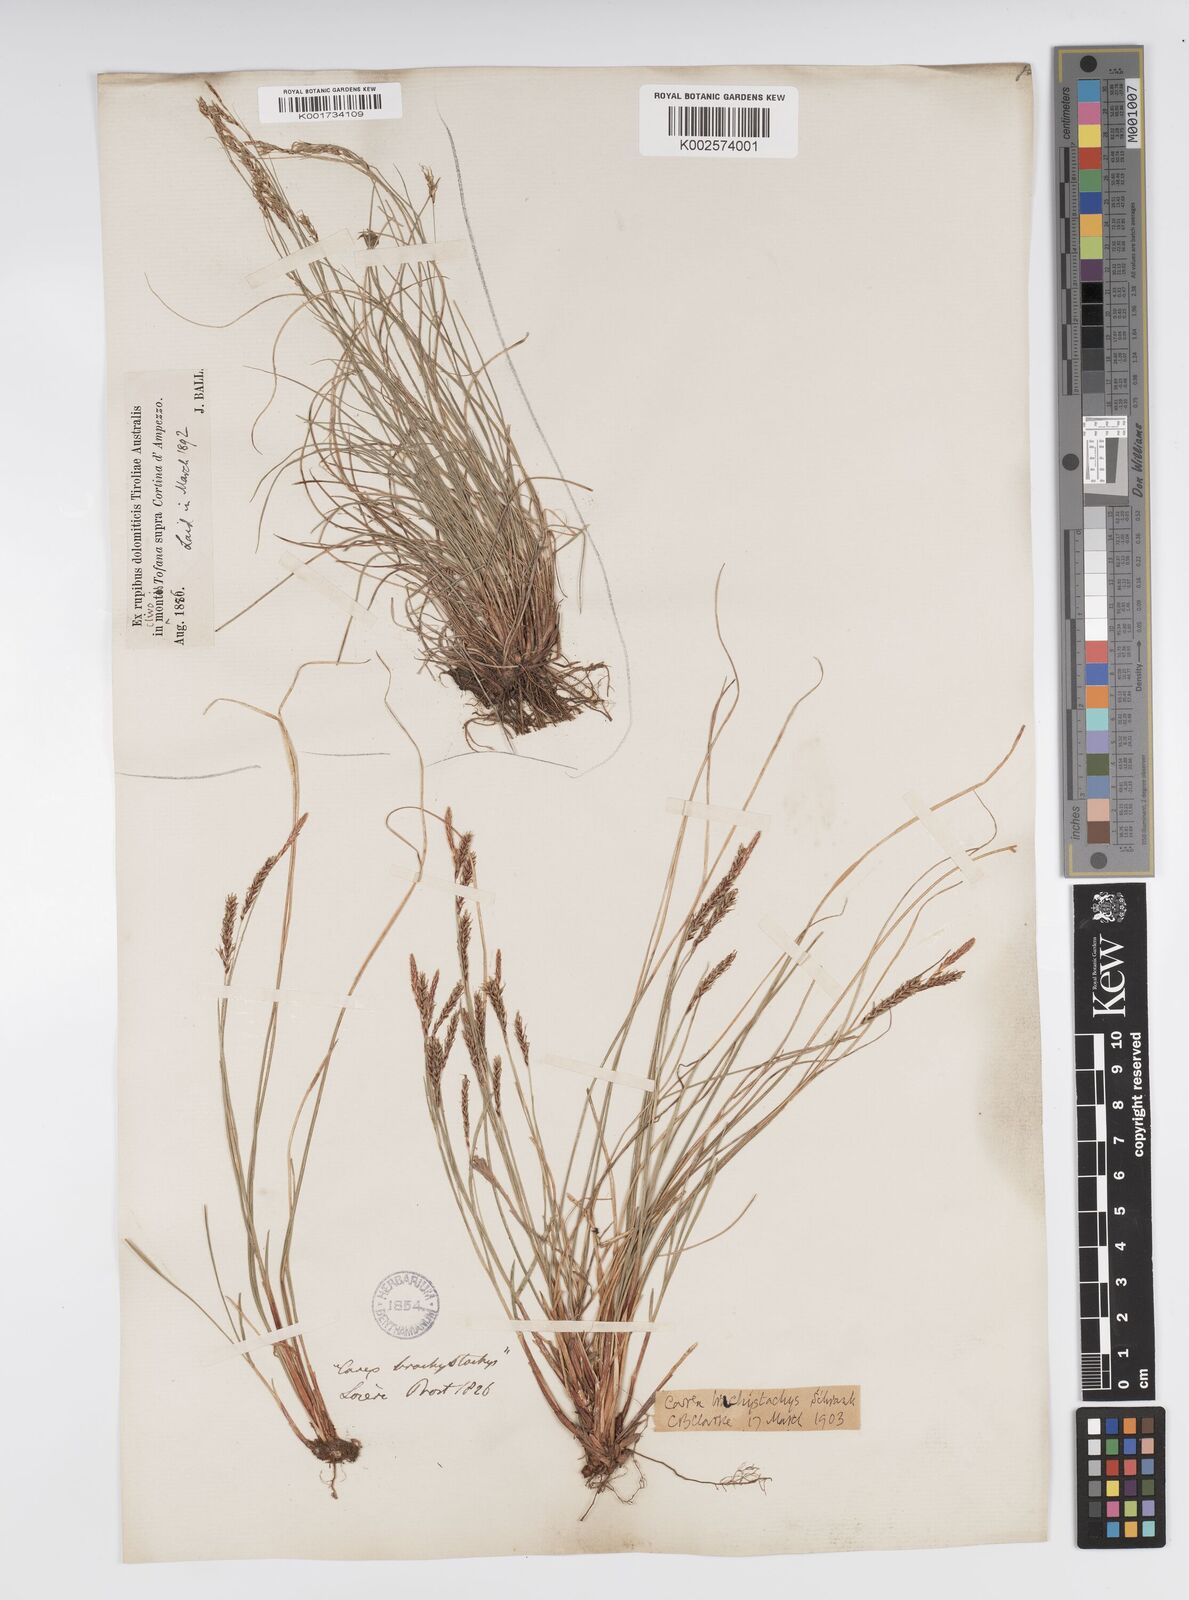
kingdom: Plantae
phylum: Tracheophyta
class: Liliopsida
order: Poales
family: Cyperaceae
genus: Carex
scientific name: Carex brachystachys
